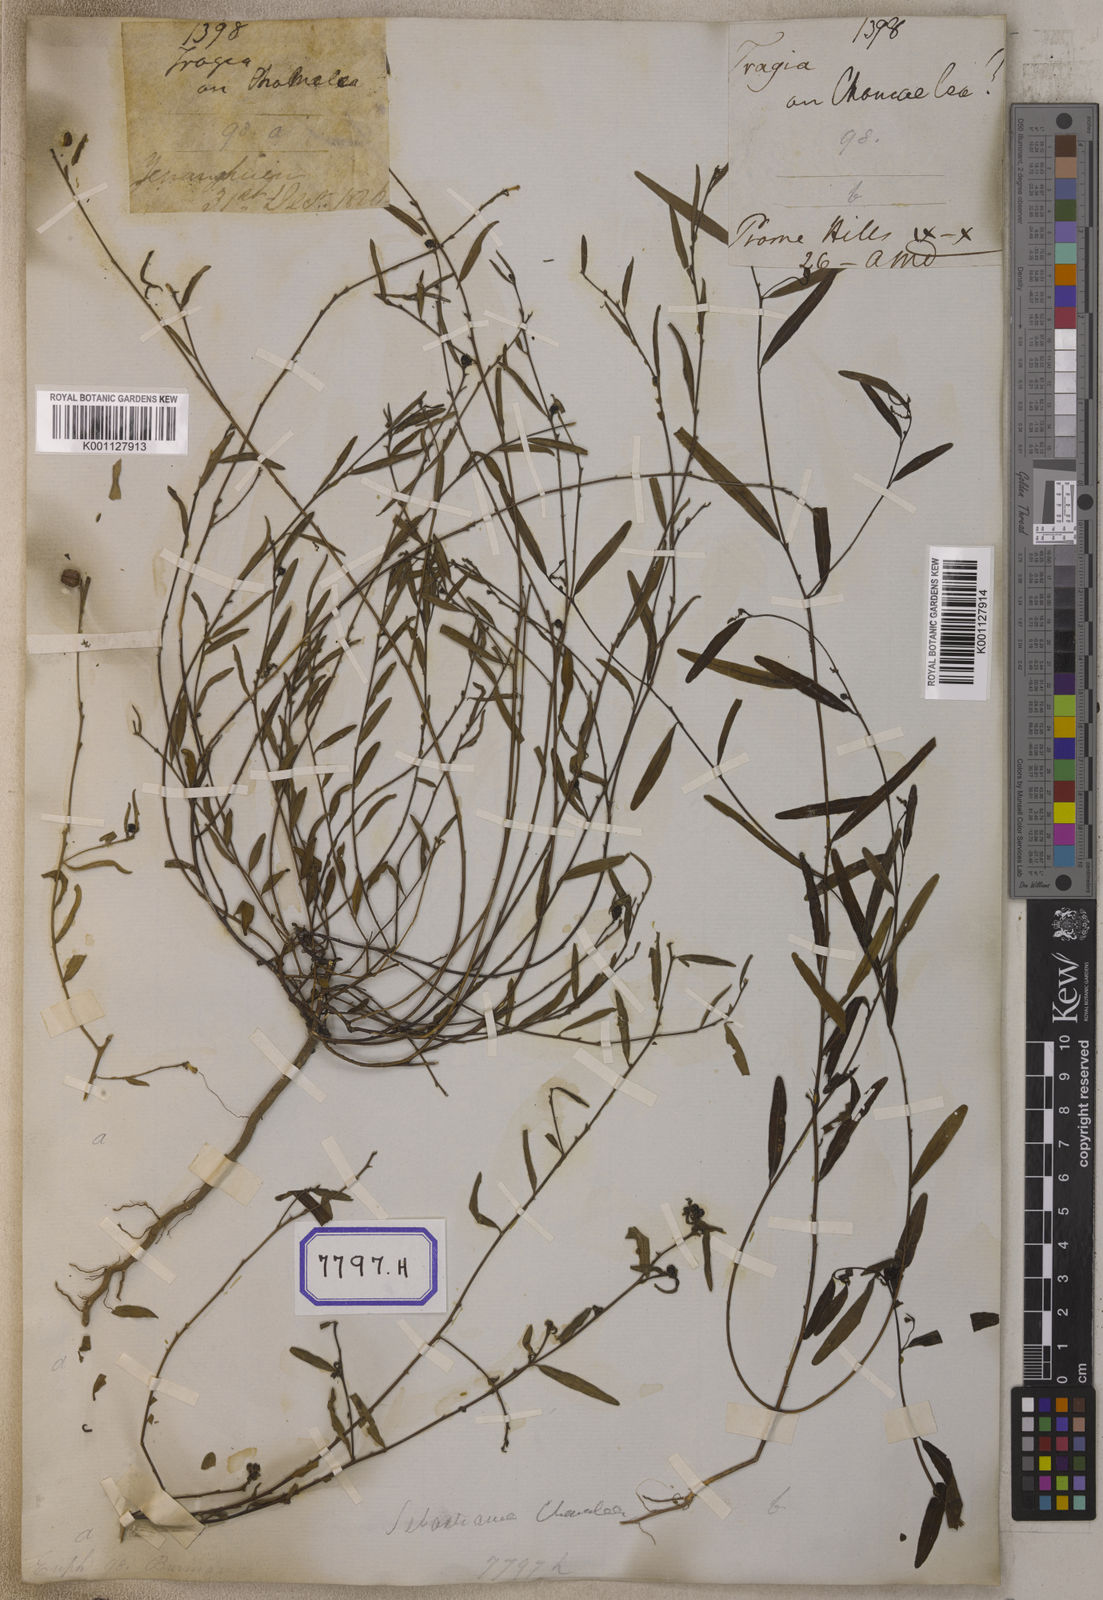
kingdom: Plantae
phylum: Tracheophyta
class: Magnoliopsida
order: Malpighiales
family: Euphorbiaceae
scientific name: Euphorbiaceae
